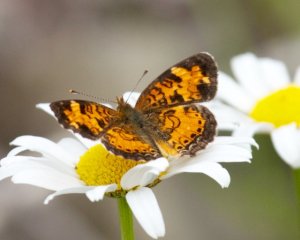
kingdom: Animalia
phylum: Arthropoda
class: Insecta
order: Lepidoptera
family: Nymphalidae
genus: Phyciodes
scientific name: Phyciodes tharos
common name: Northern Crescent
